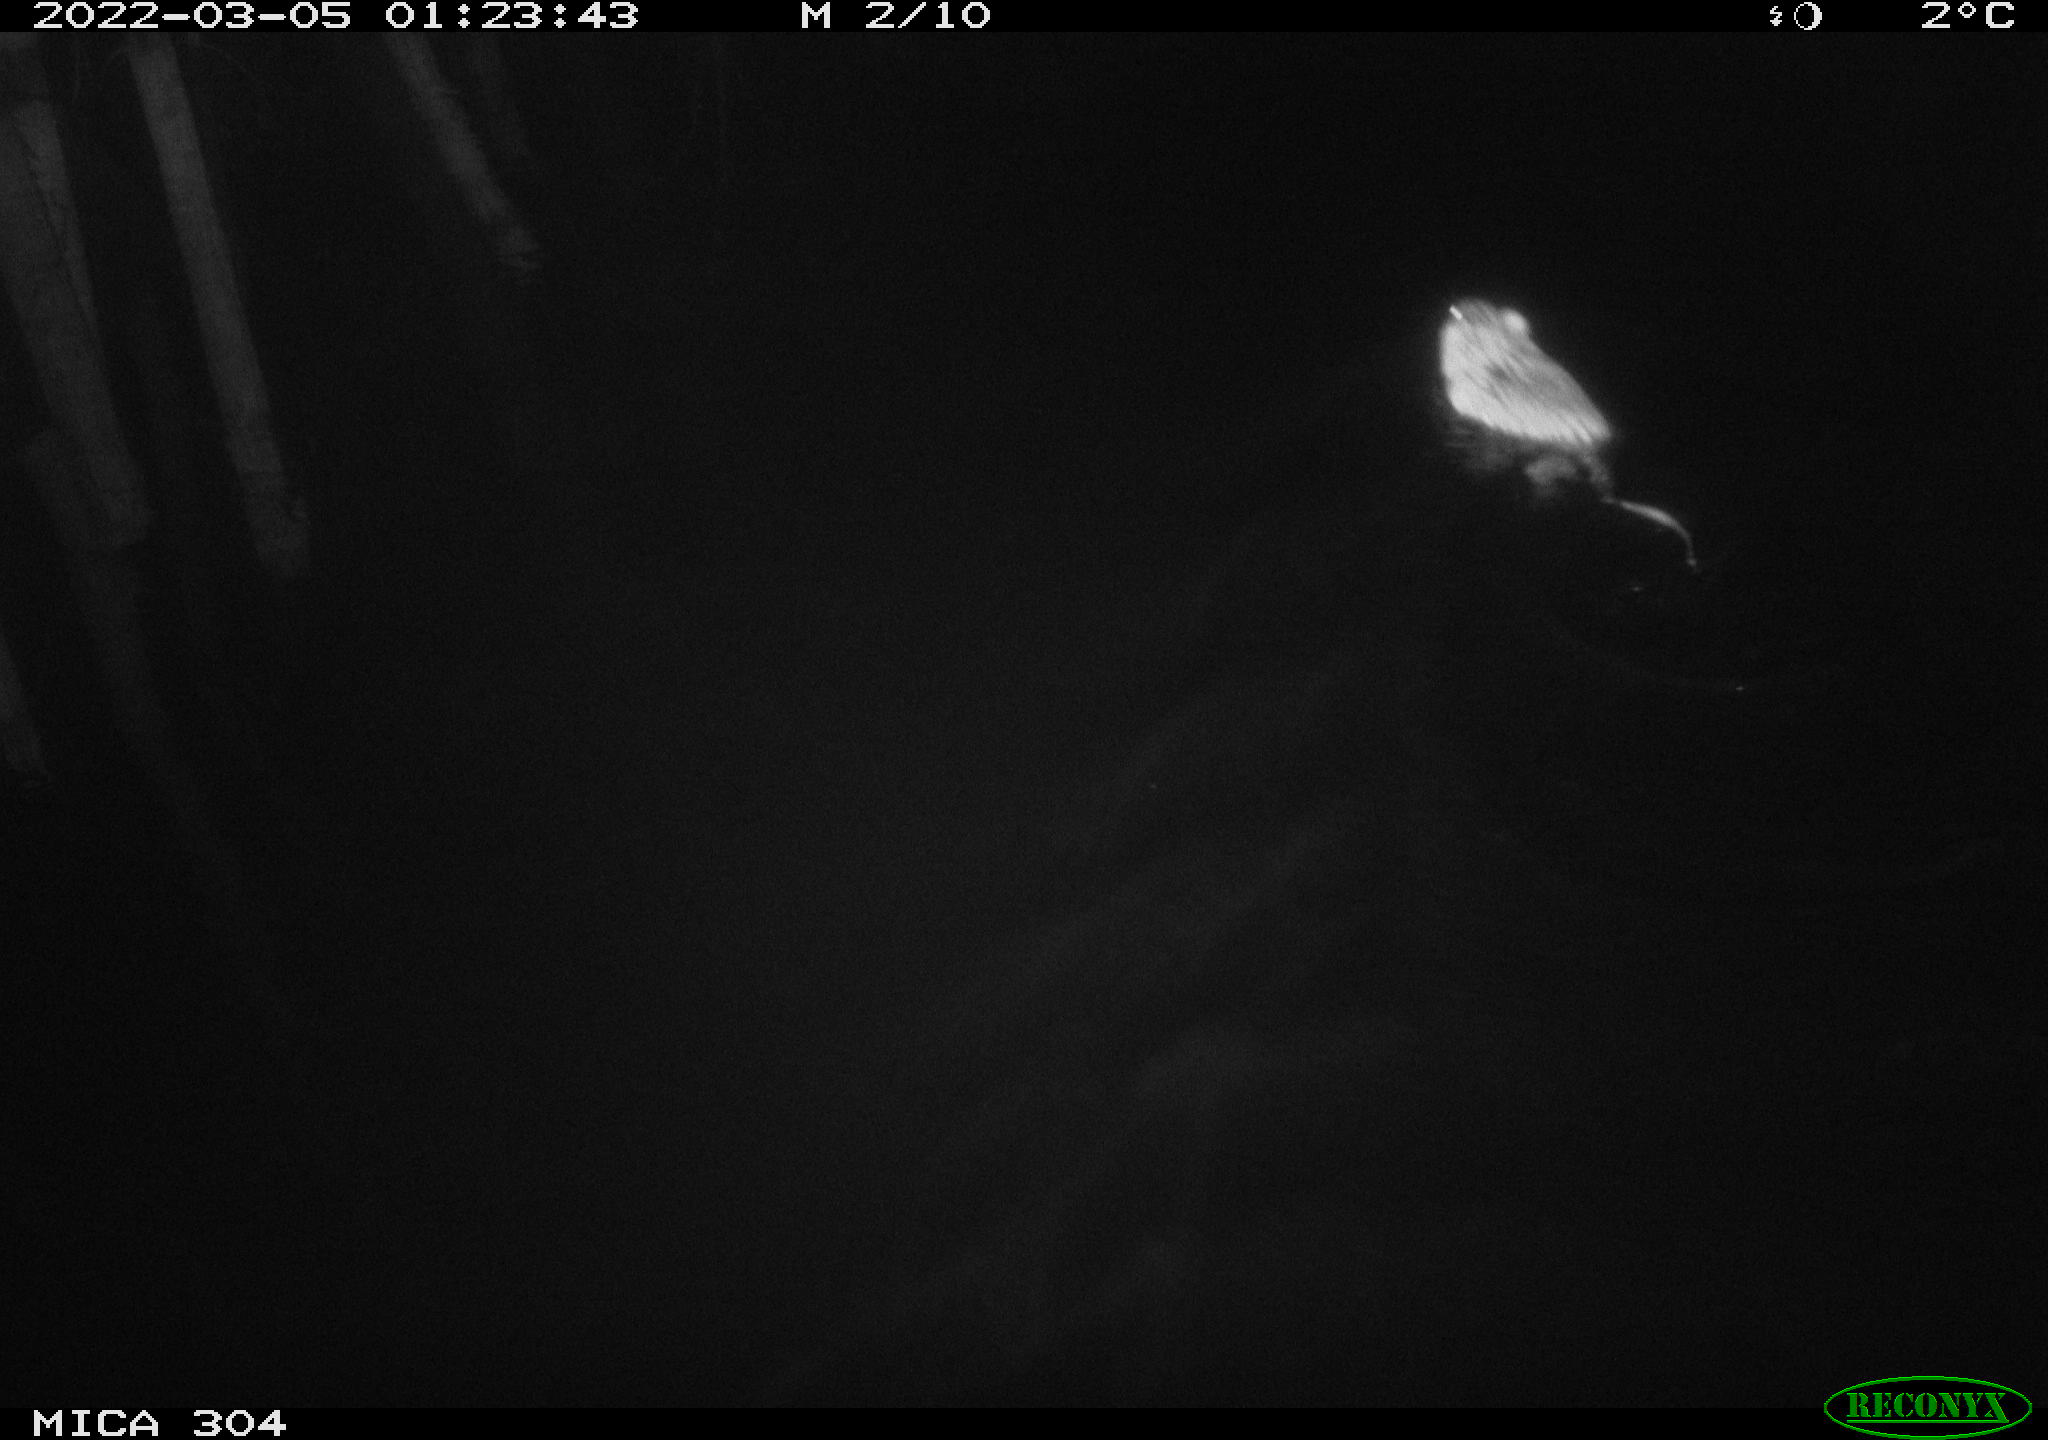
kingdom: Animalia
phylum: Chordata
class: Mammalia
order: Rodentia
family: Cricetidae
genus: Ondatra
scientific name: Ondatra zibethicus
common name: Muskrat
